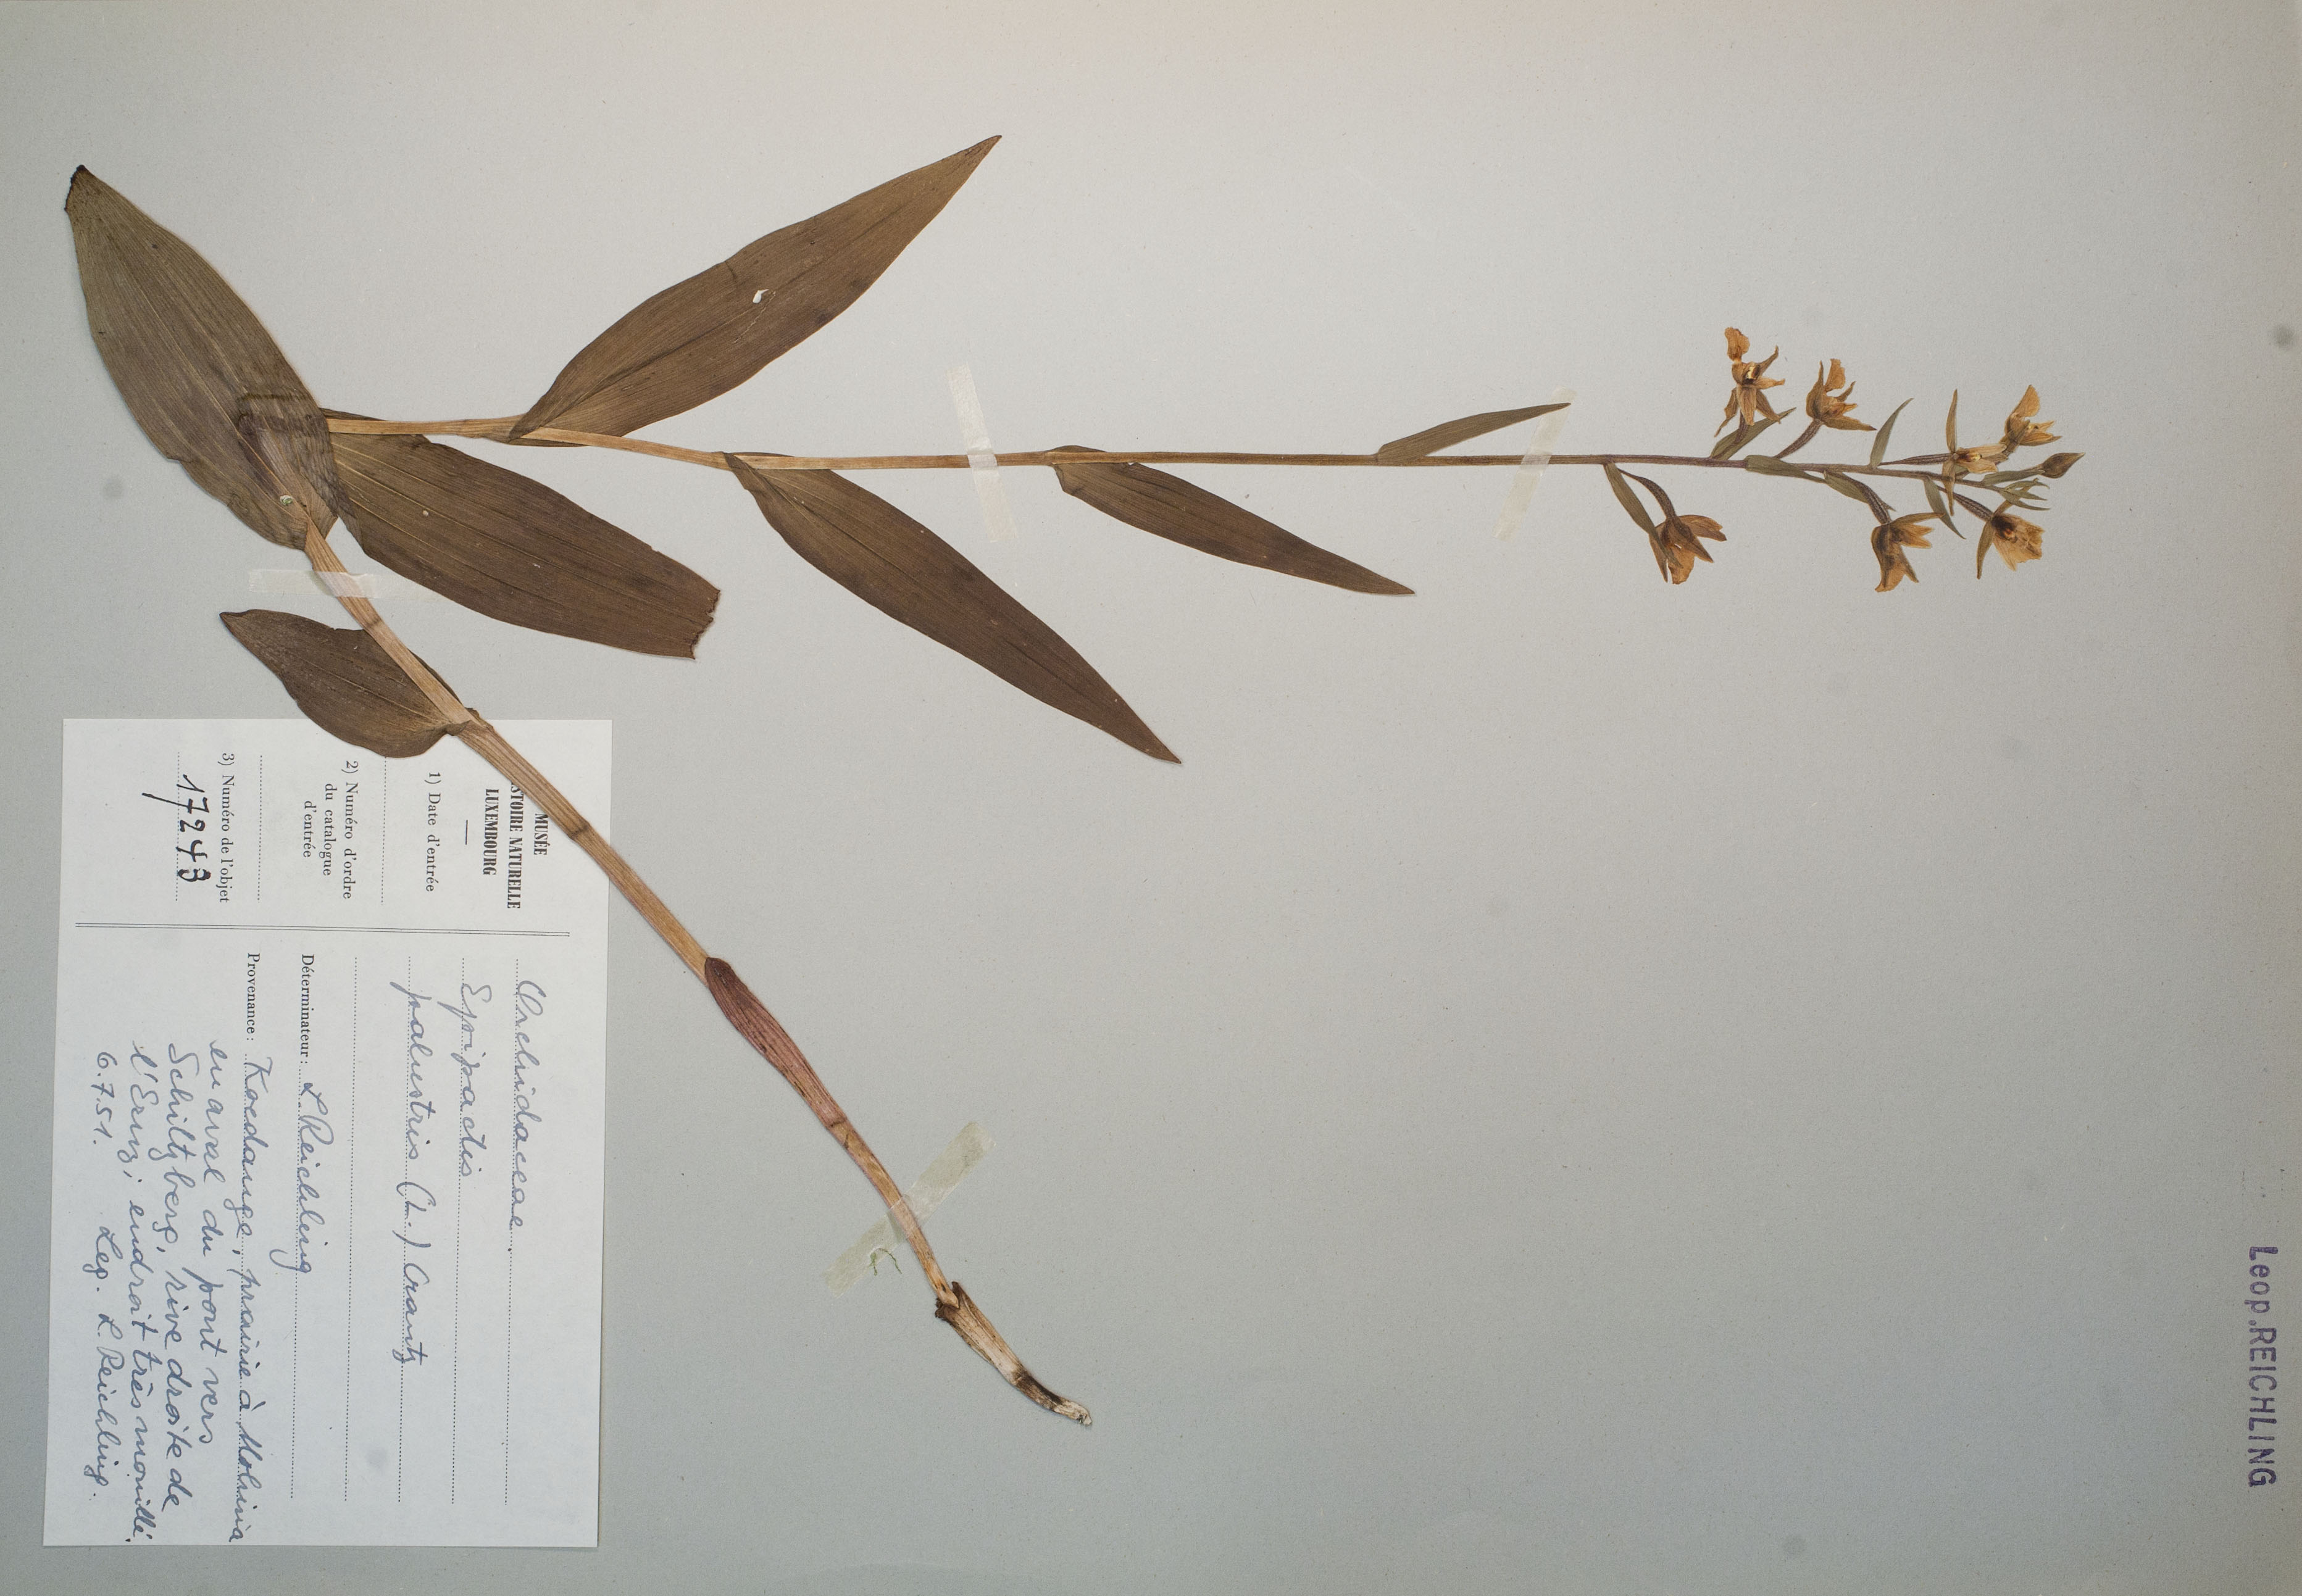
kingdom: Plantae
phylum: Tracheophyta
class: Liliopsida
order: Asparagales
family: Orchidaceae
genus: Epipactis
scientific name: Epipactis palustris
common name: Marsh helleborine
